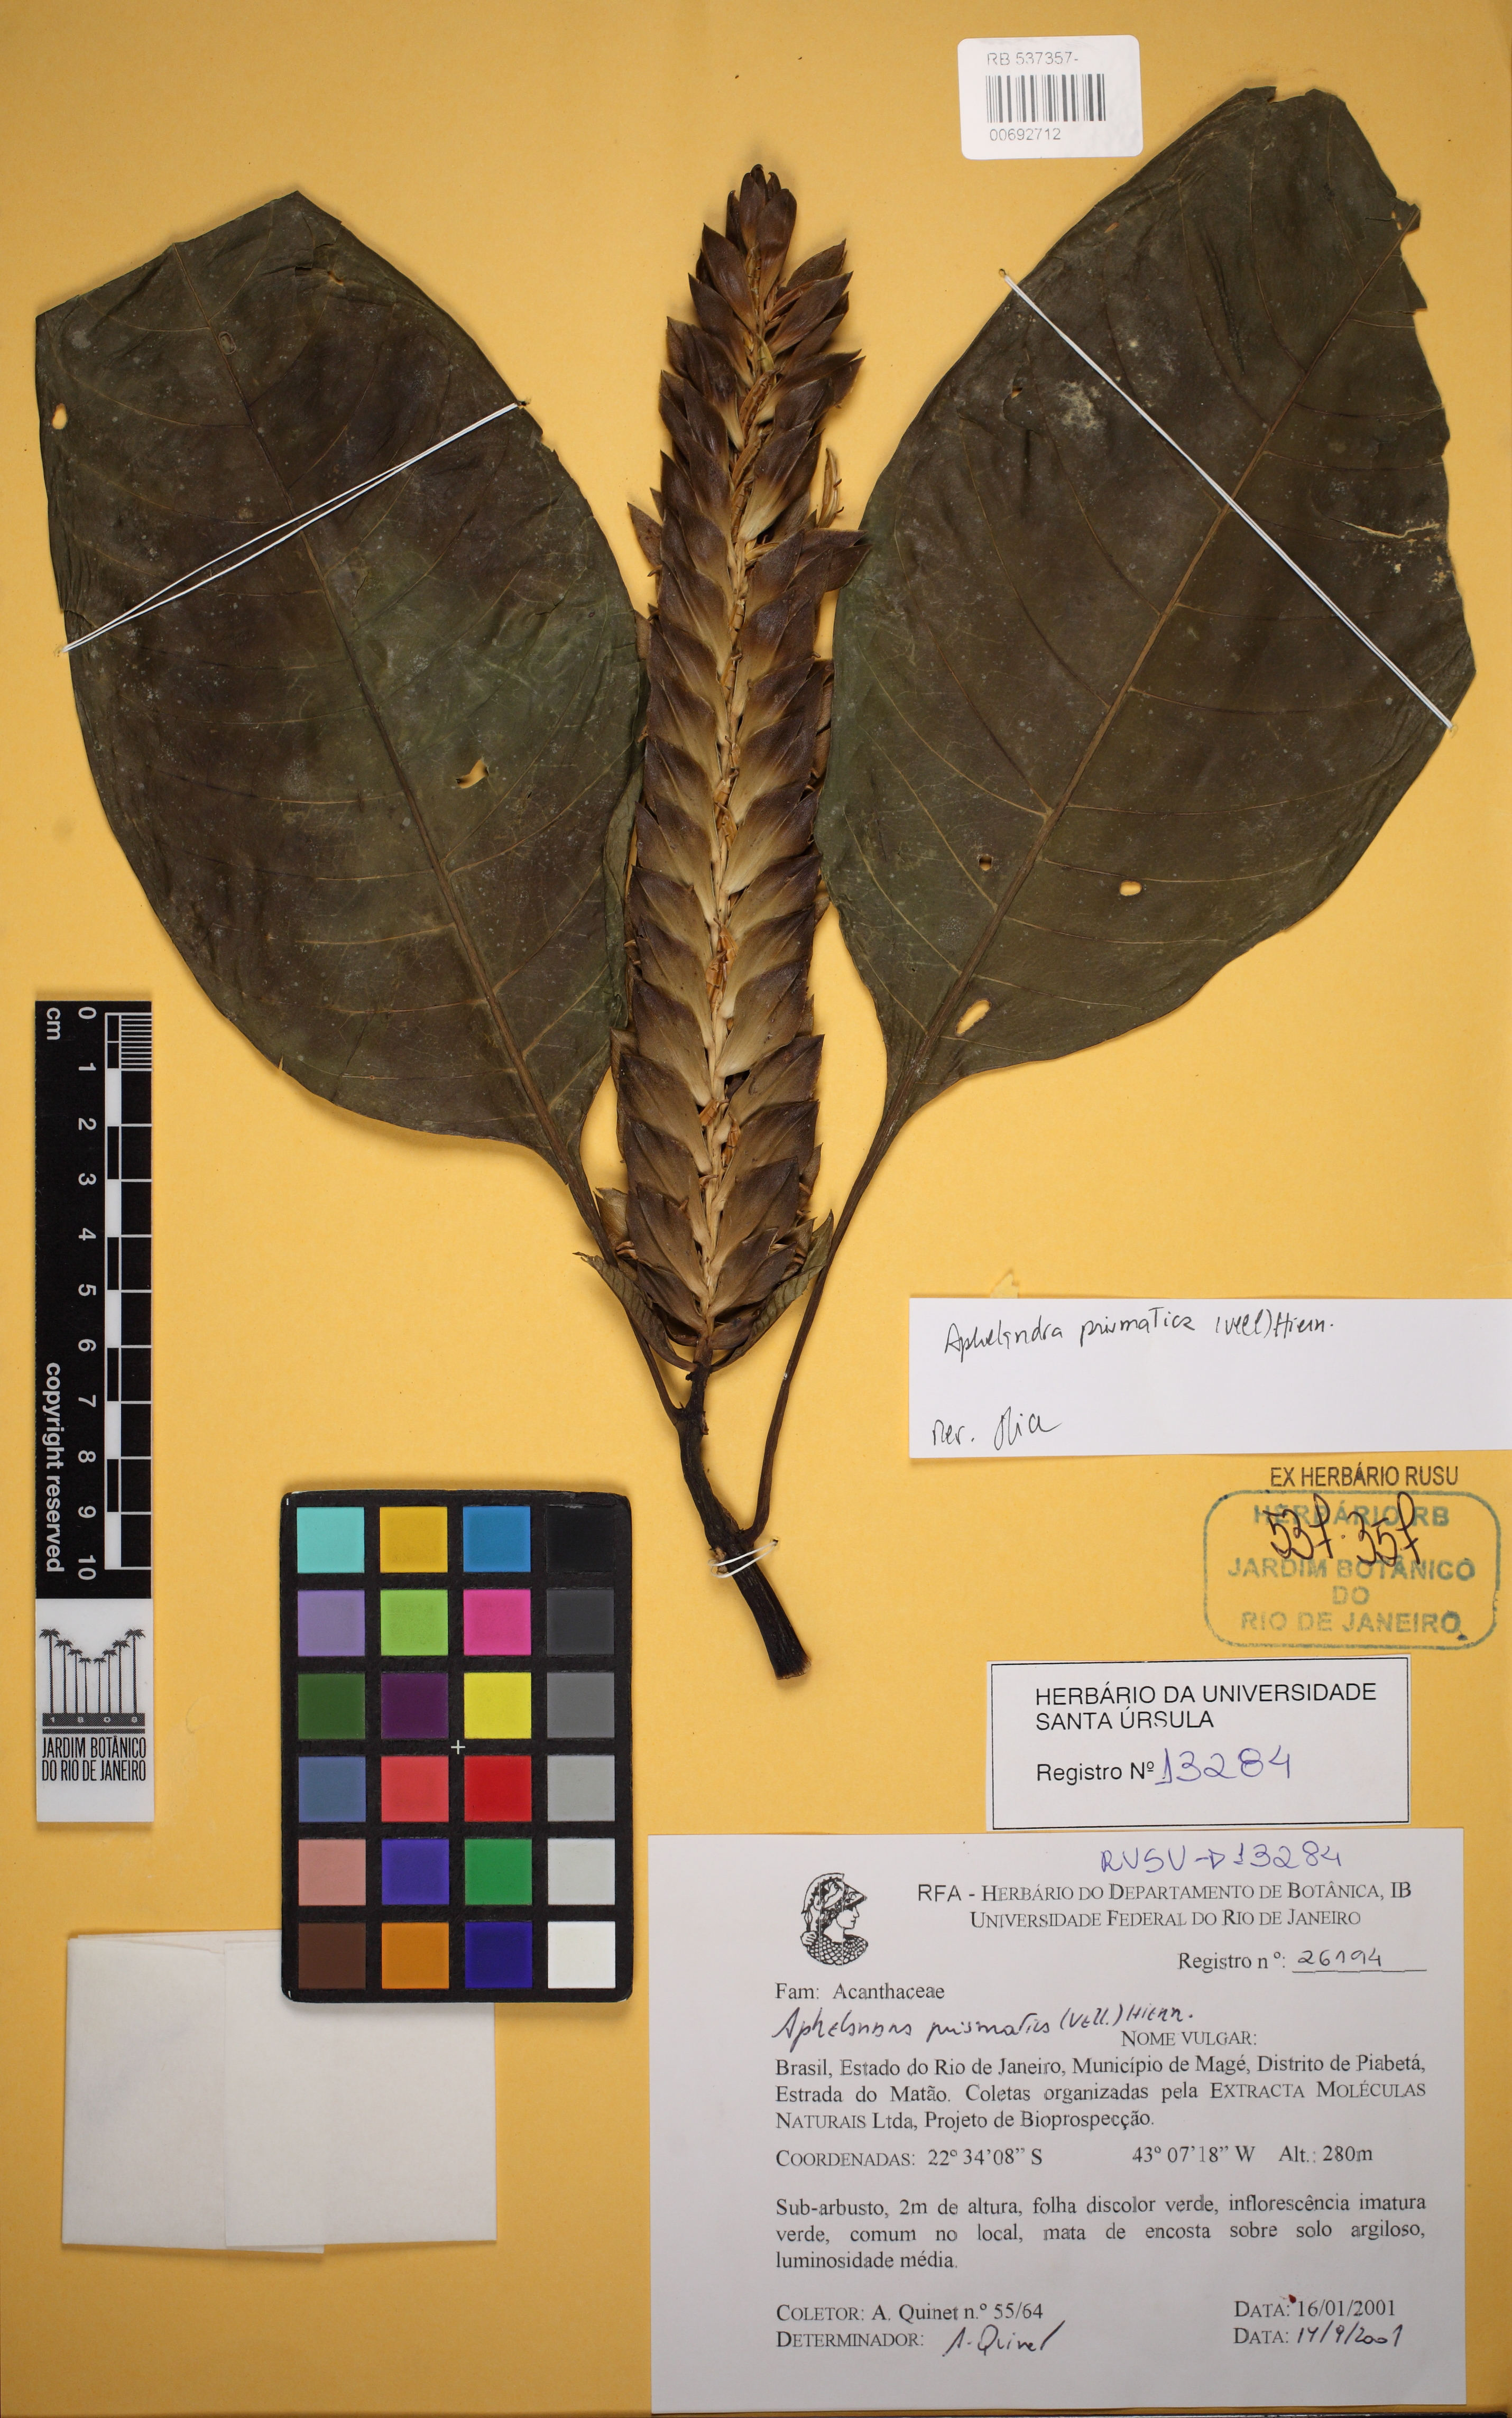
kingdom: Plantae
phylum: Tracheophyta
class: Magnoliopsida
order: Lamiales
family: Acanthaceae
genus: Aphelandra
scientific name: Aphelandra barkleyi
